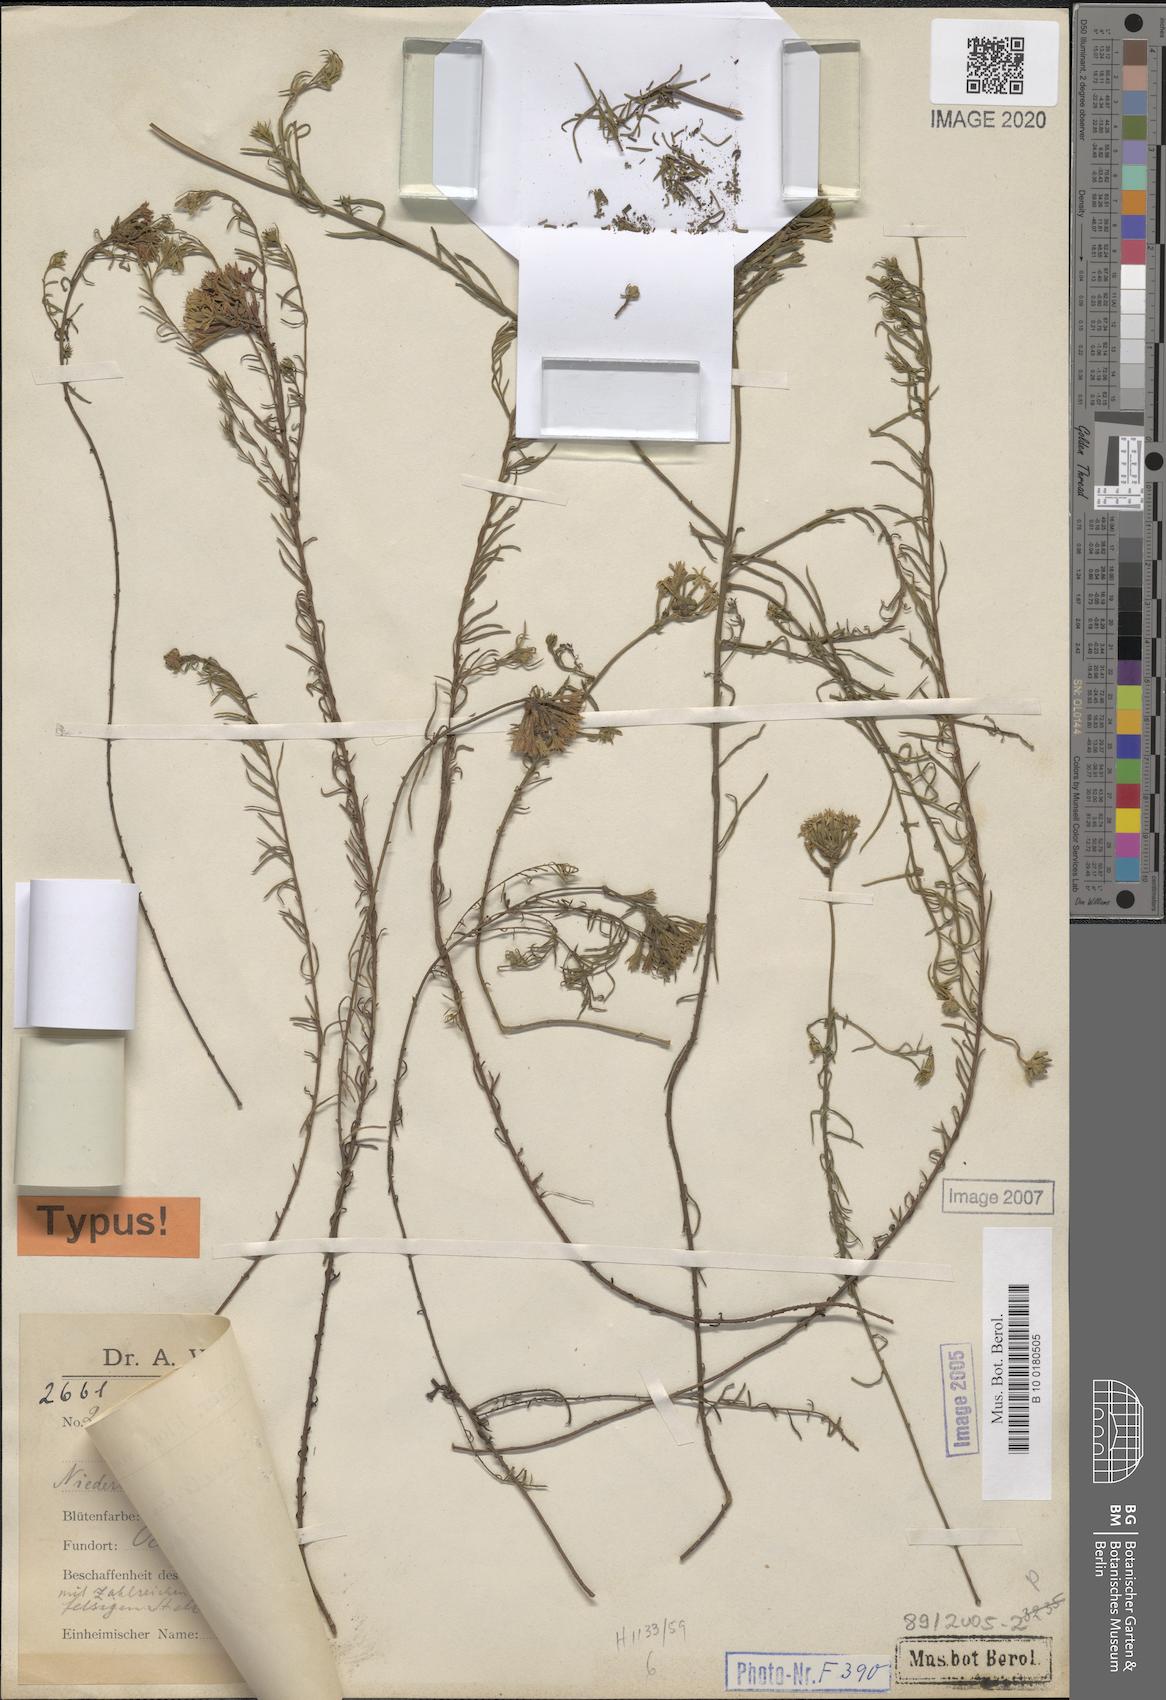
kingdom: Plantae
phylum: Tracheophyta
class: Magnoliopsida
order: Santalales
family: Schoepfiaceae
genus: Quinchamalium
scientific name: Quinchamalium chilense
